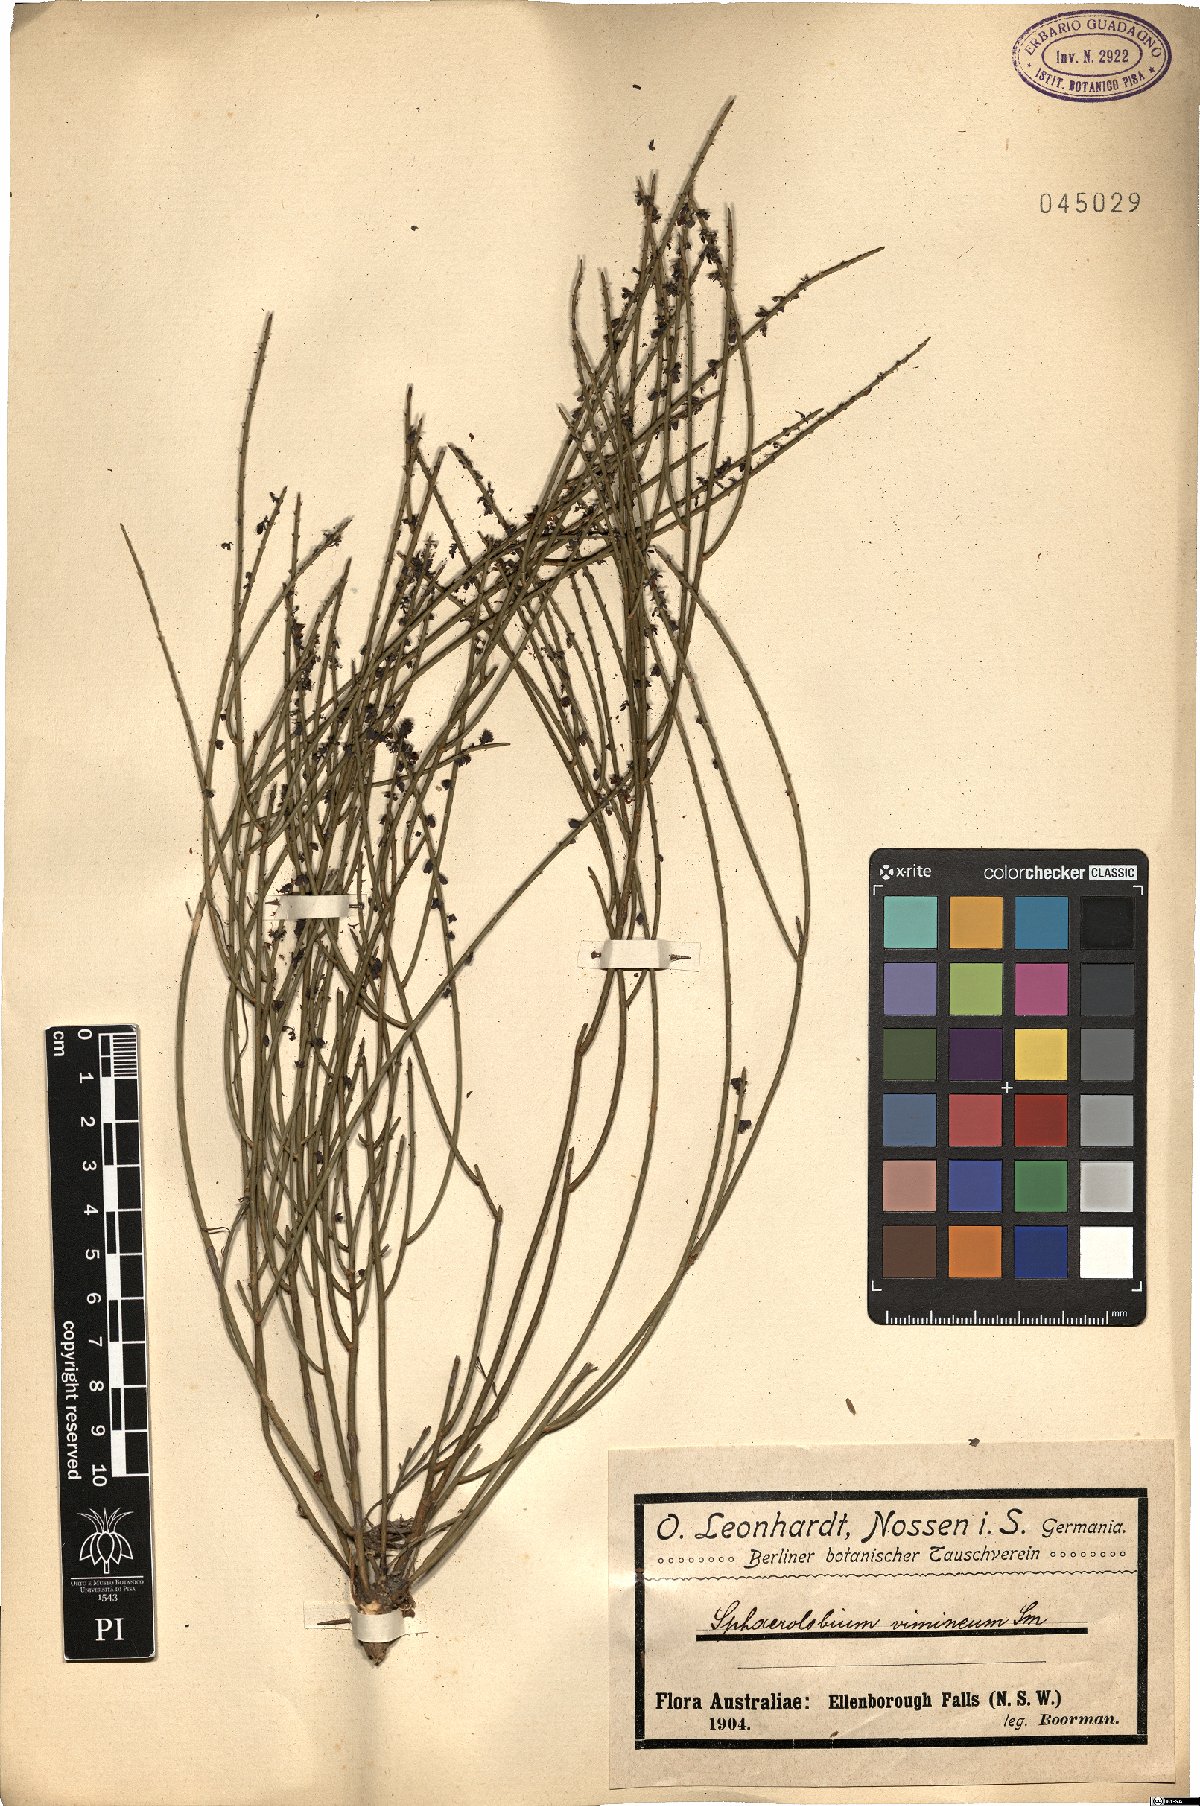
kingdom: Plantae
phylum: Tracheophyta
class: Magnoliopsida
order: Fabales
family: Fabaceae
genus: Sphaerolobium
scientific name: Sphaerolobium vimineum
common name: Leafless globe-pea
